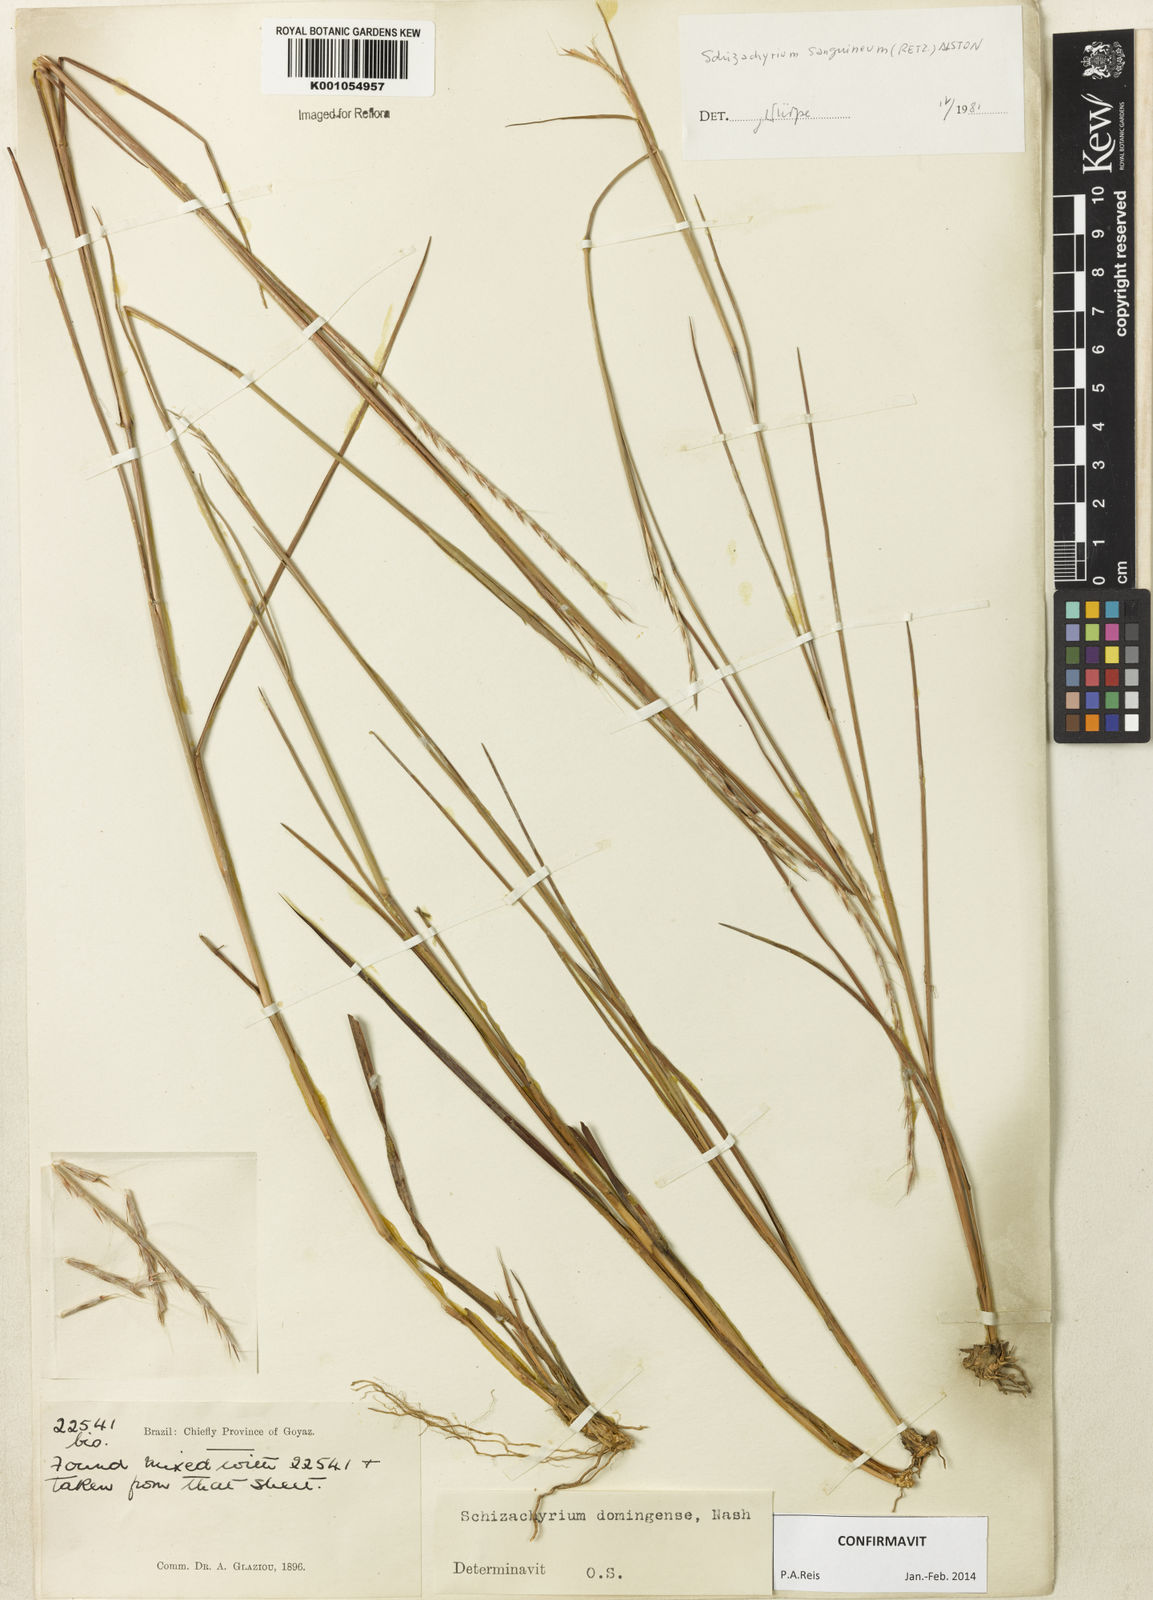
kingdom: Plantae
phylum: Tracheophyta
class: Liliopsida
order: Poales
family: Poaceae
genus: Schizachyrium
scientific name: Schizachyrium sanguineum
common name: Crimson bluestem
